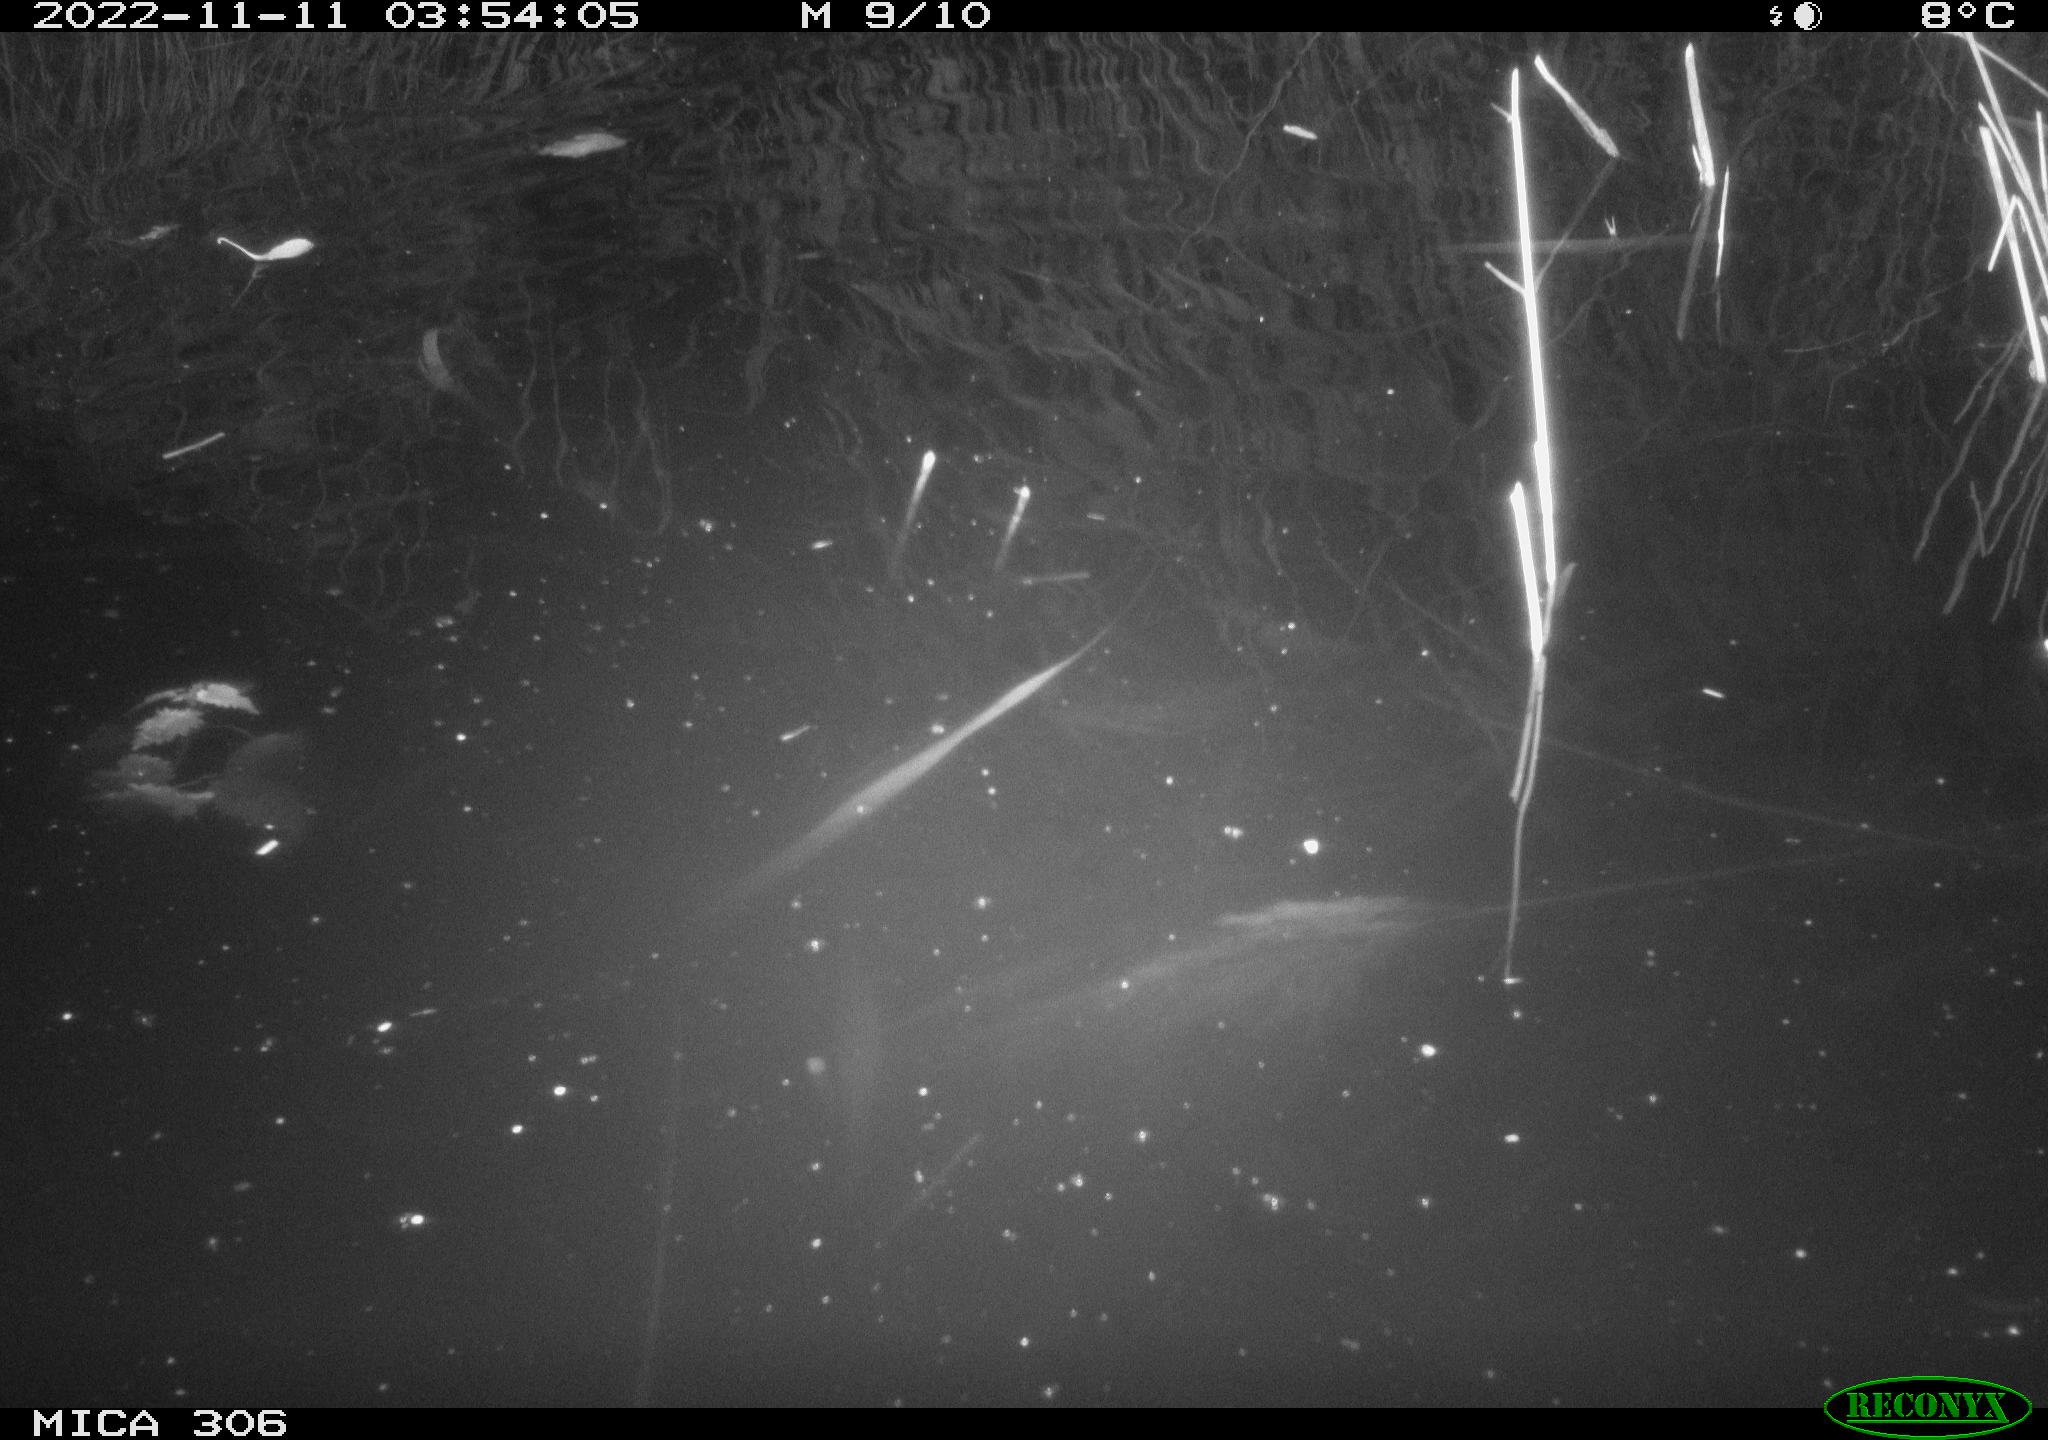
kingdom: Animalia
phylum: Chordata
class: Mammalia
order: Rodentia
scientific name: Rodentia
